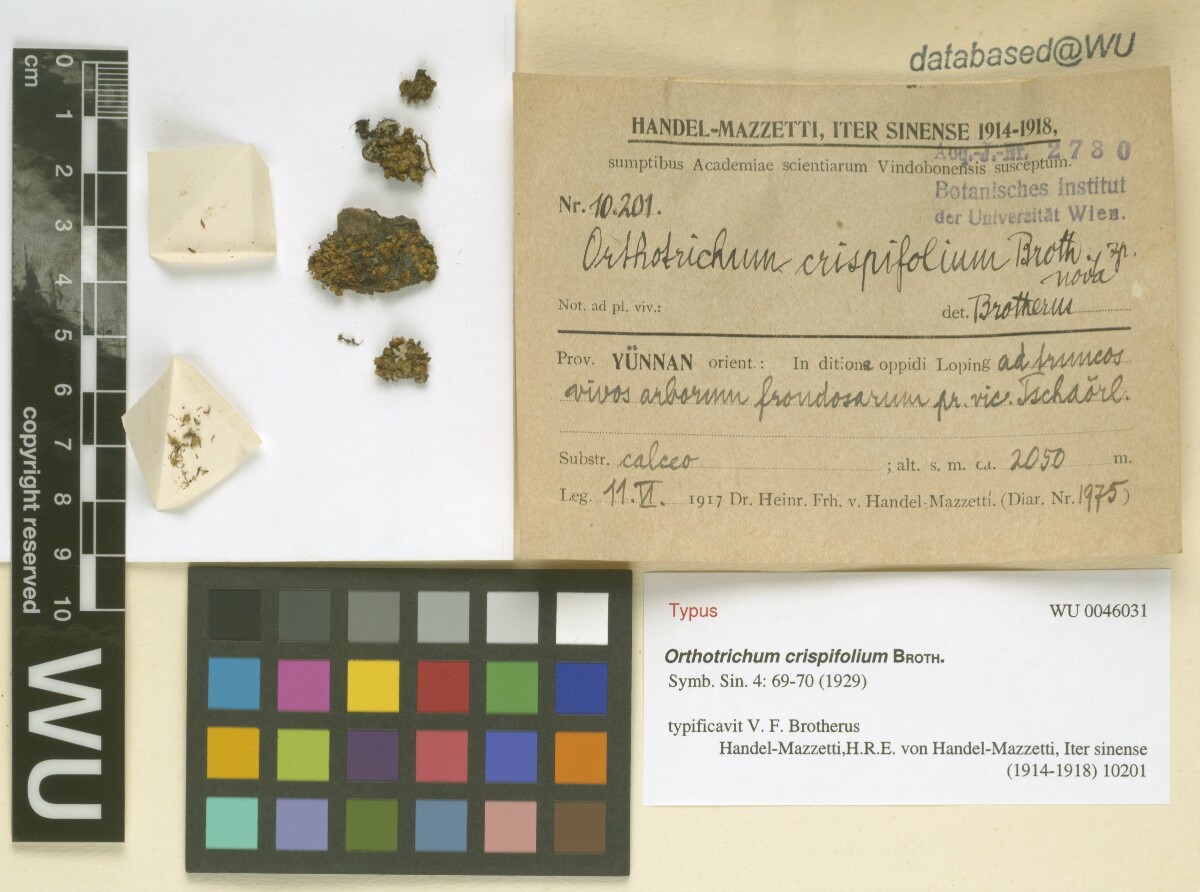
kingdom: Plantae
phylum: Bryophyta
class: Bryopsida
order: Orthotrichales
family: Orthotrichaceae
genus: Orthotrichum
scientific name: Orthotrichum erubescens
